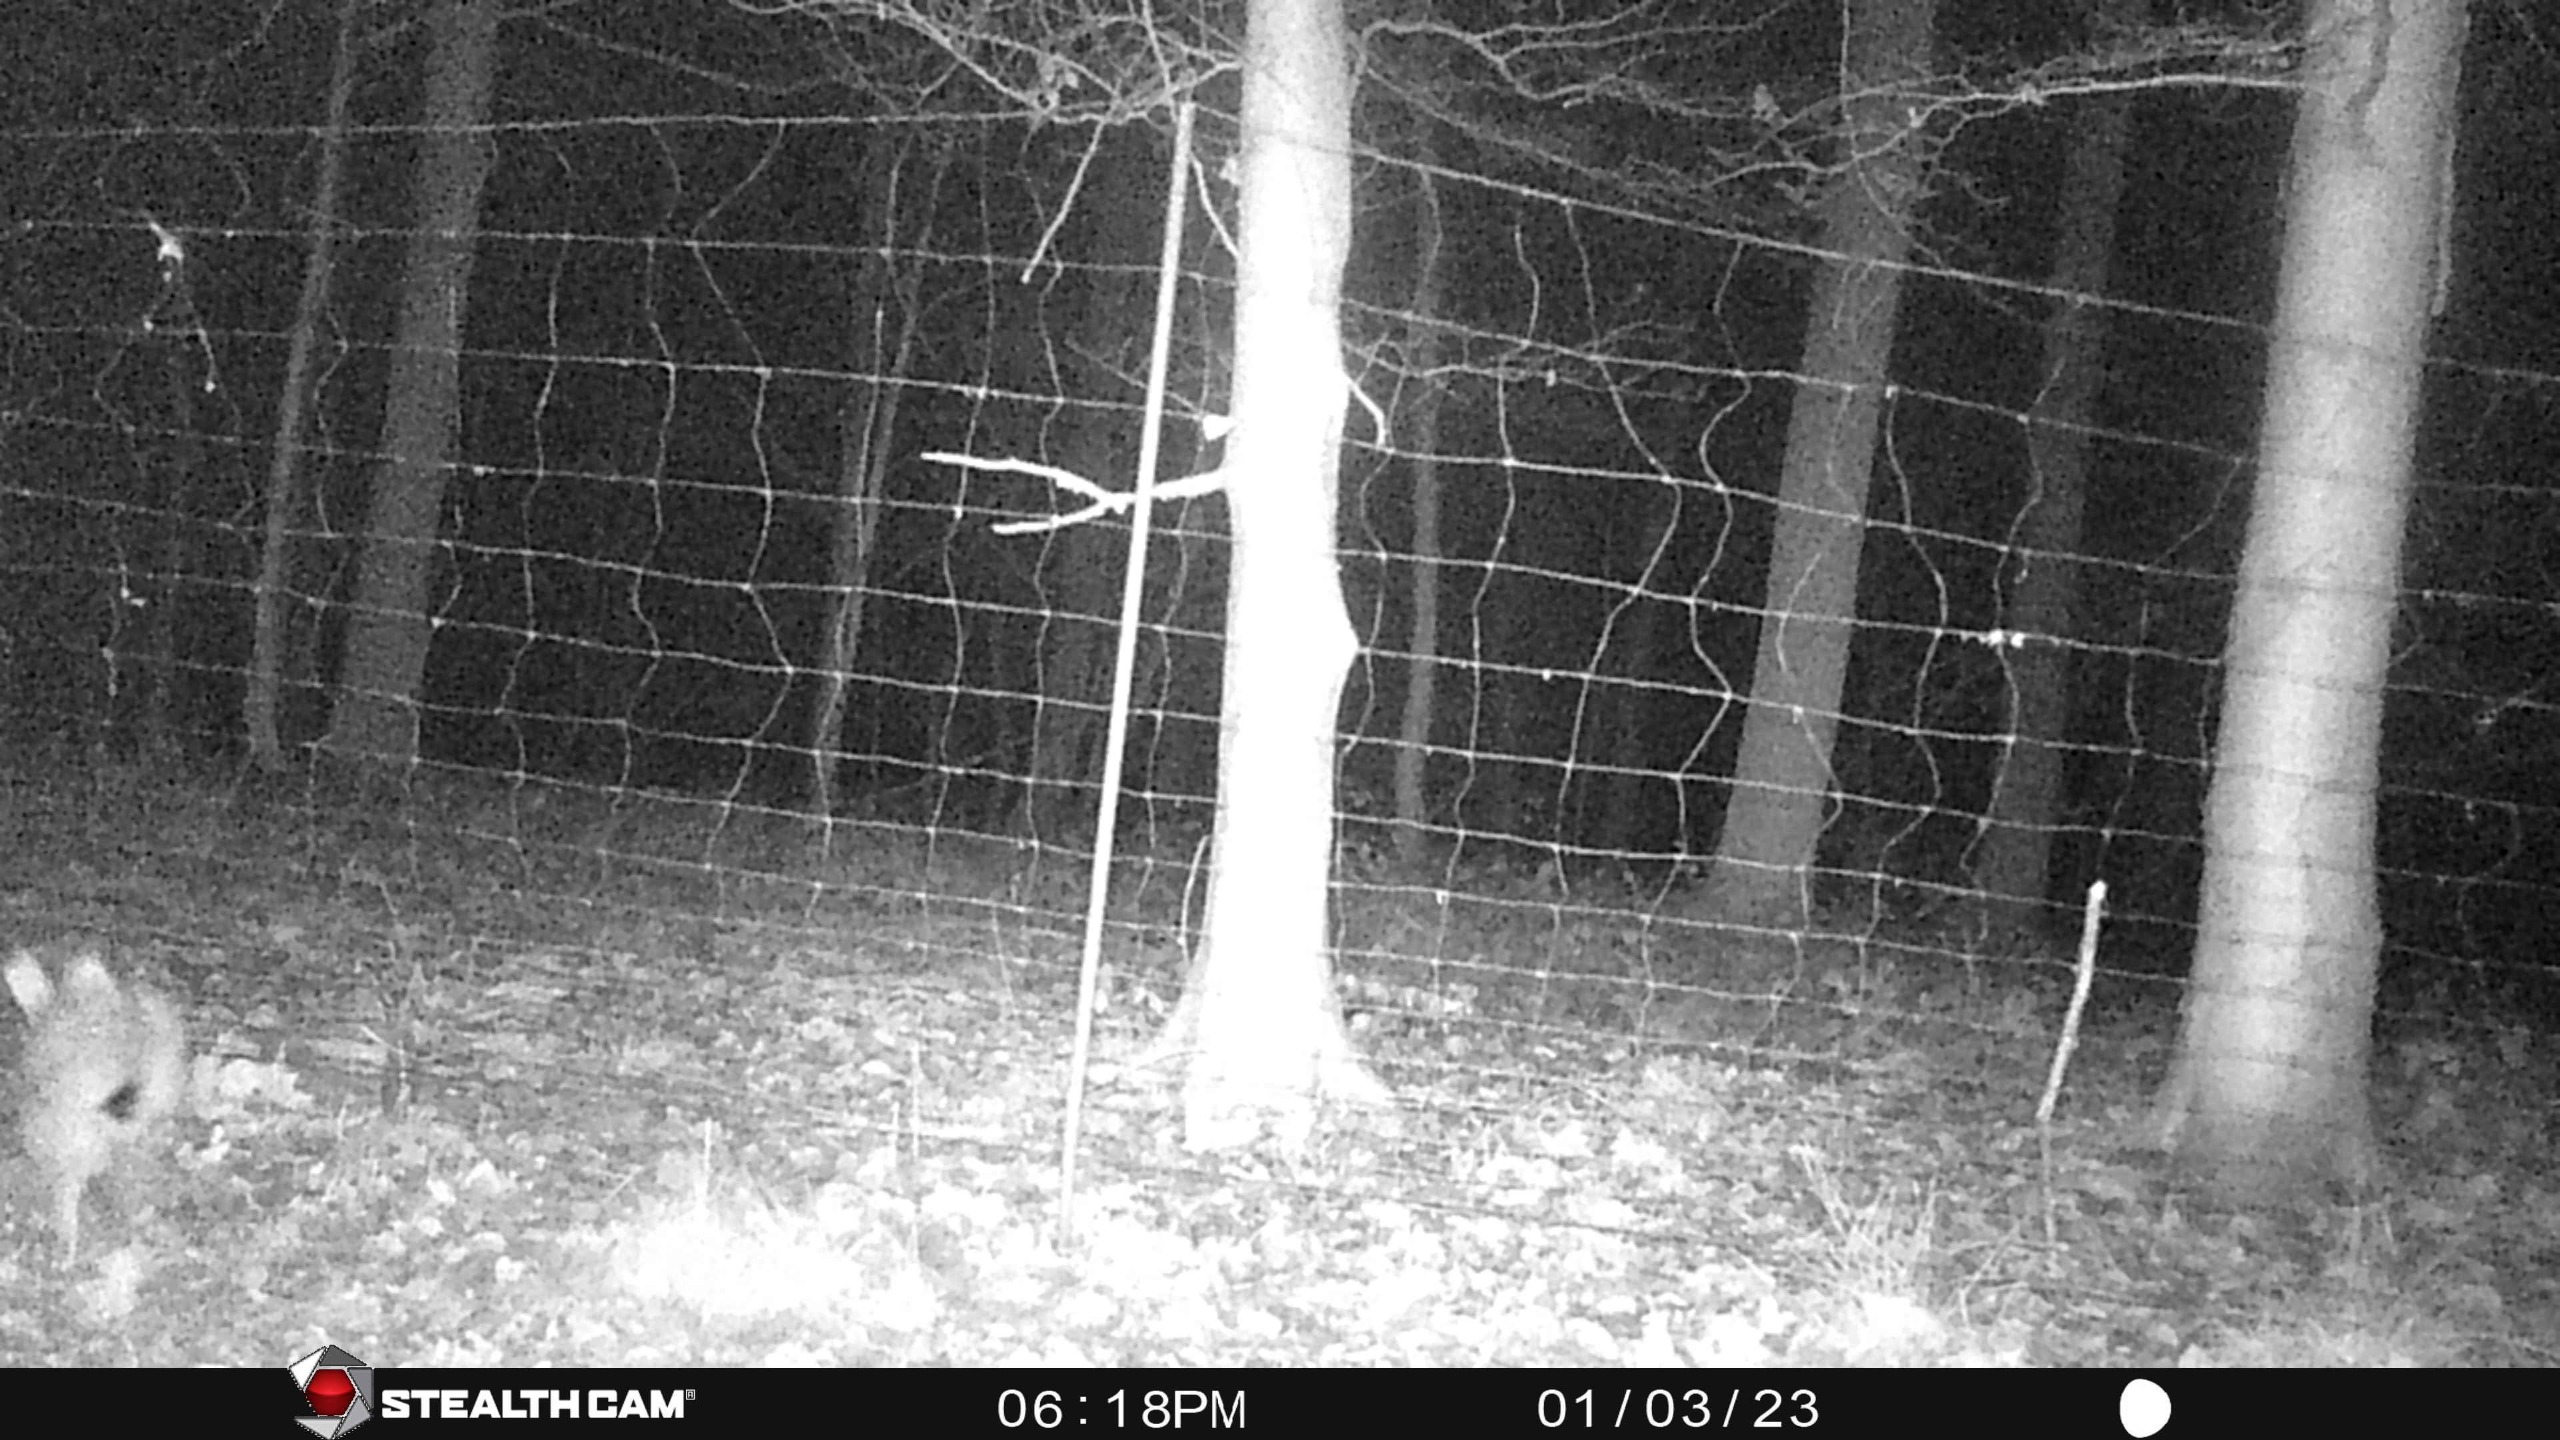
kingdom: Animalia
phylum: Chordata
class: Mammalia
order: Lagomorpha
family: Leporidae
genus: Lepus
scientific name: Lepus europaeus
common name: Hare
